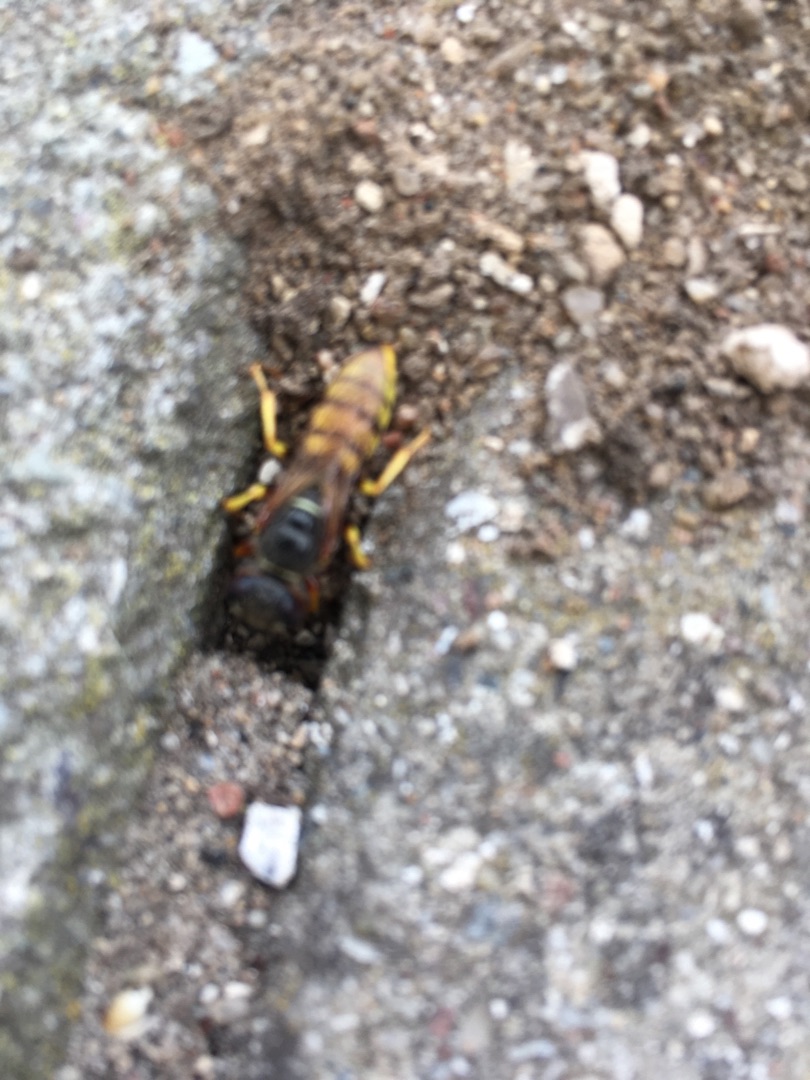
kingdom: Animalia
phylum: Arthropoda
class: Insecta
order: Hymenoptera
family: Crabronidae
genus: Philanthus
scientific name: Philanthus triangulum
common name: Biulv
